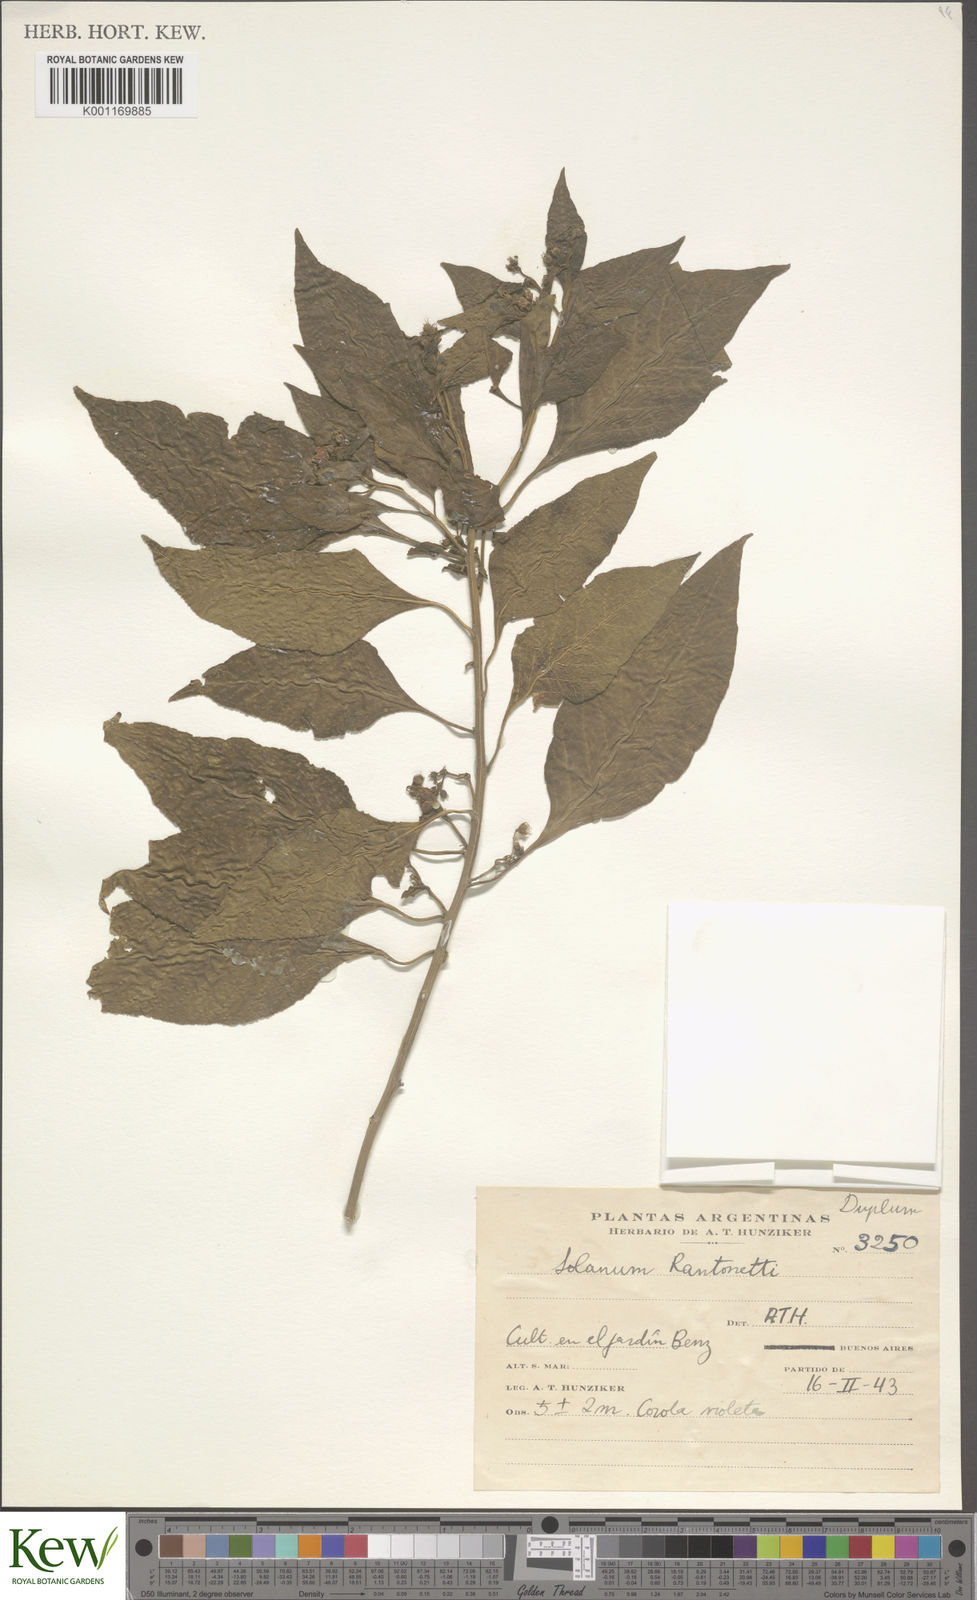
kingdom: Plantae
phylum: Tracheophyta
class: Magnoliopsida
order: Solanales
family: Solanaceae
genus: Solanum
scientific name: Solanum
